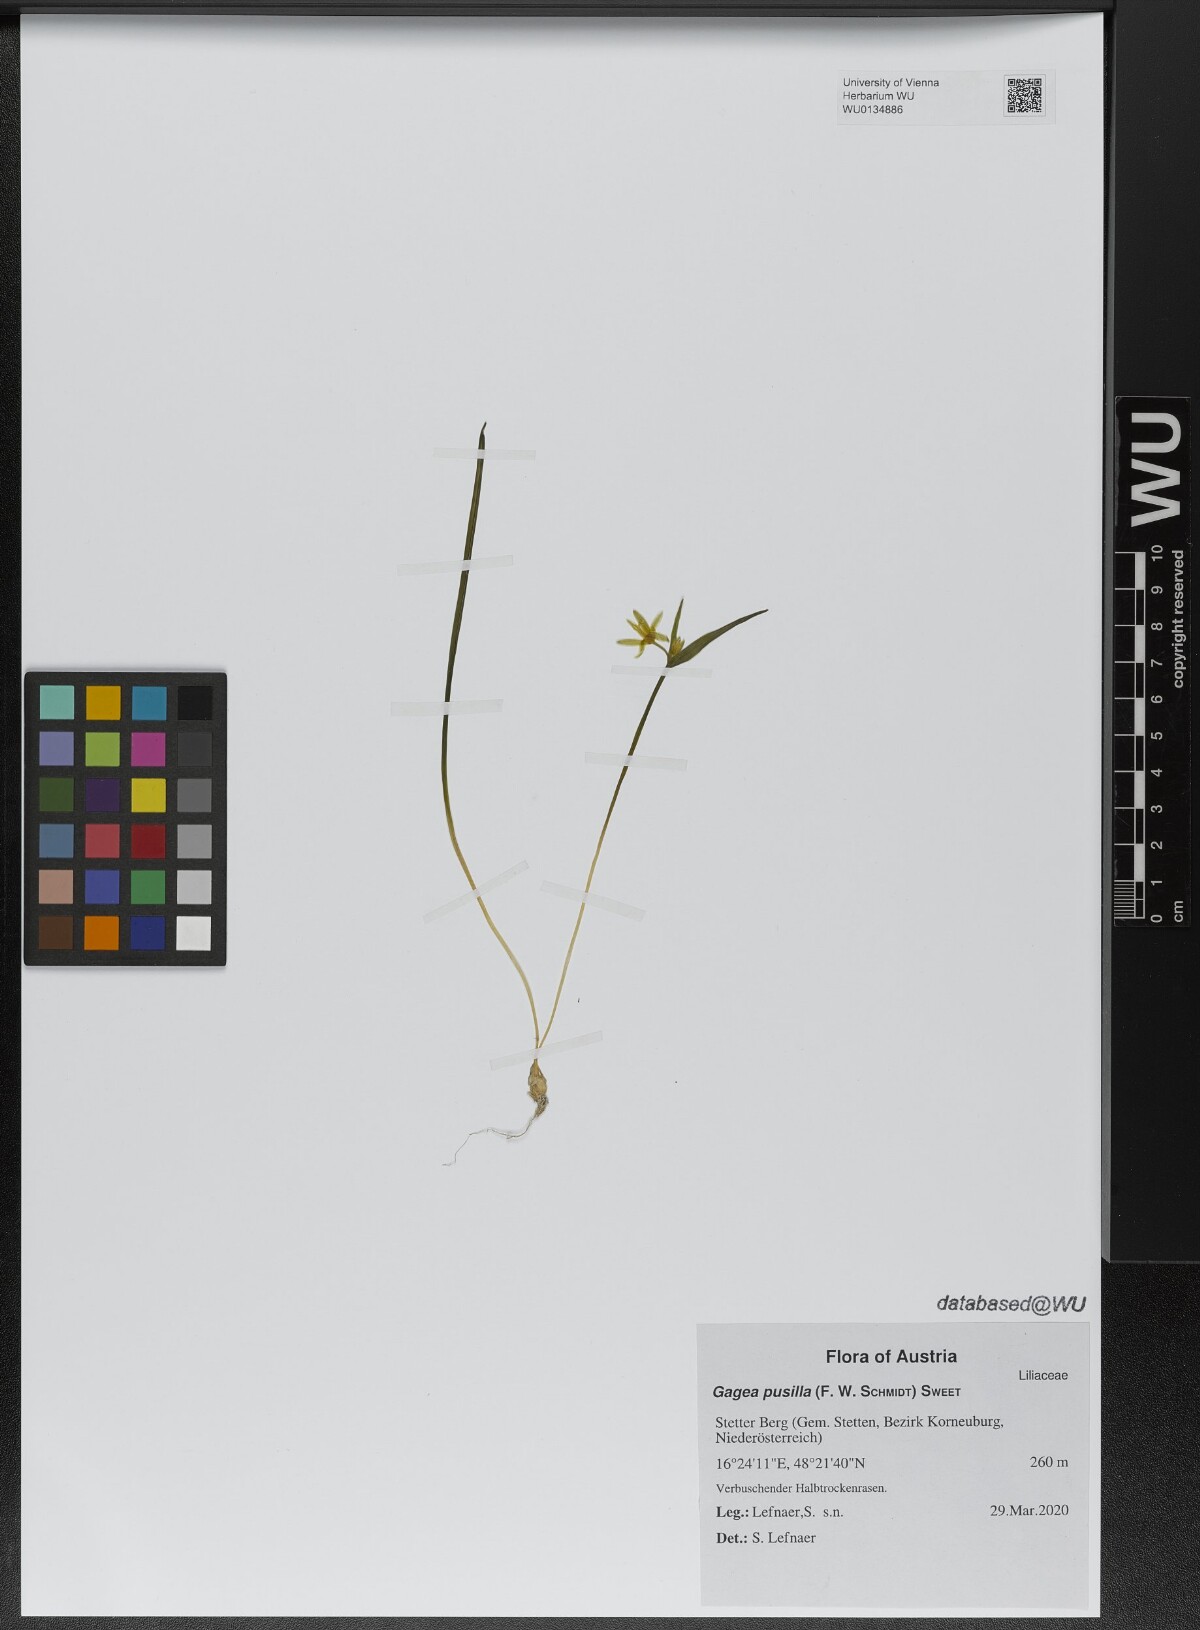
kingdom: Plantae
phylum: Tracheophyta
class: Liliopsida
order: Liliales
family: Liliaceae
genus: Gagea
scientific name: Gagea pusilla
